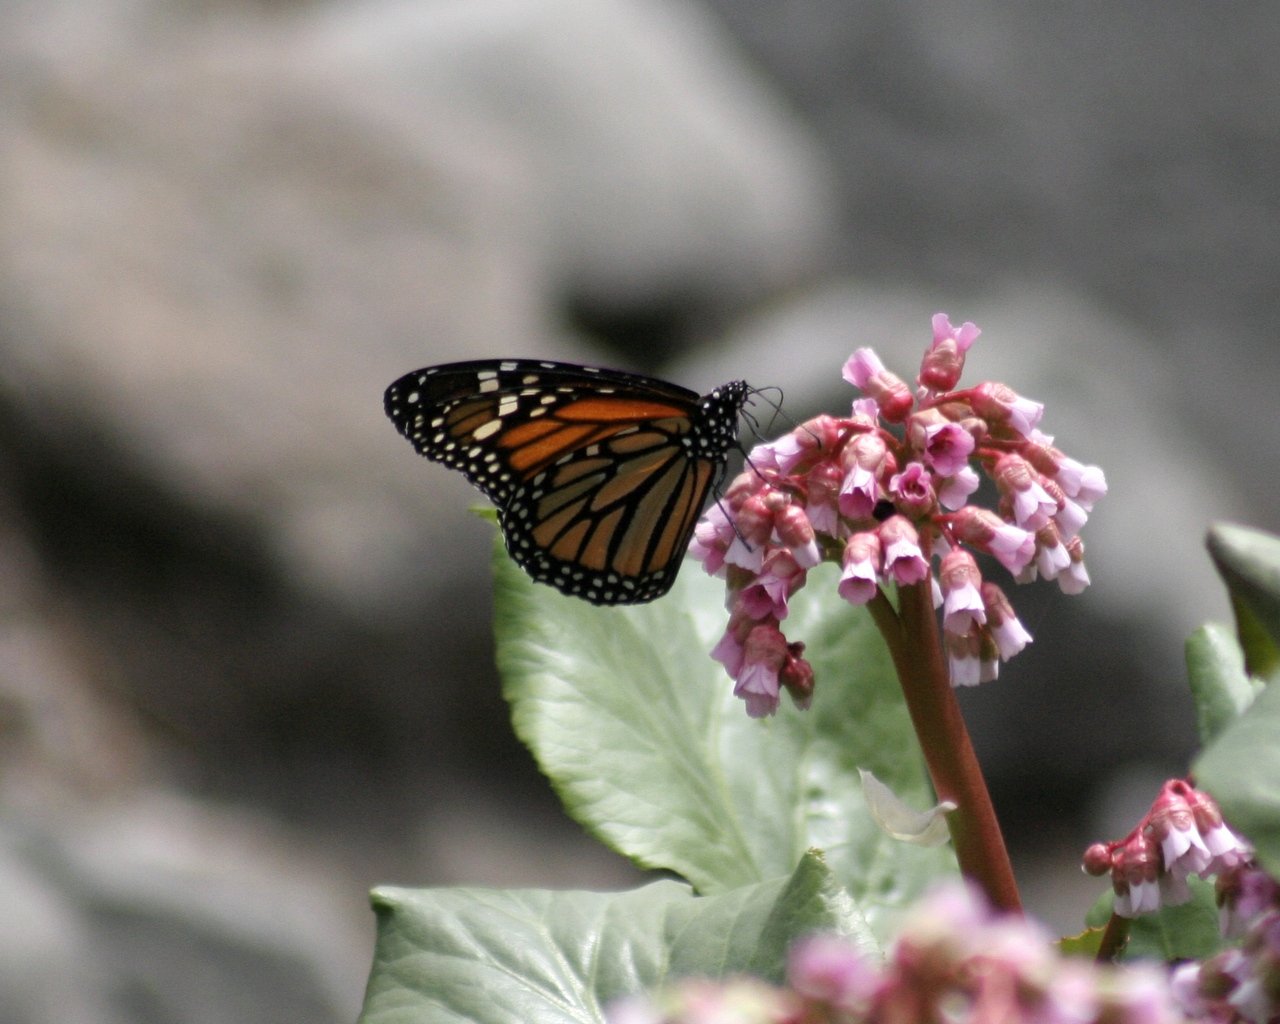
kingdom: Animalia
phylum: Arthropoda
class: Insecta
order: Lepidoptera
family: Nymphalidae
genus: Danaus
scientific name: Danaus plexippus
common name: Monarch
